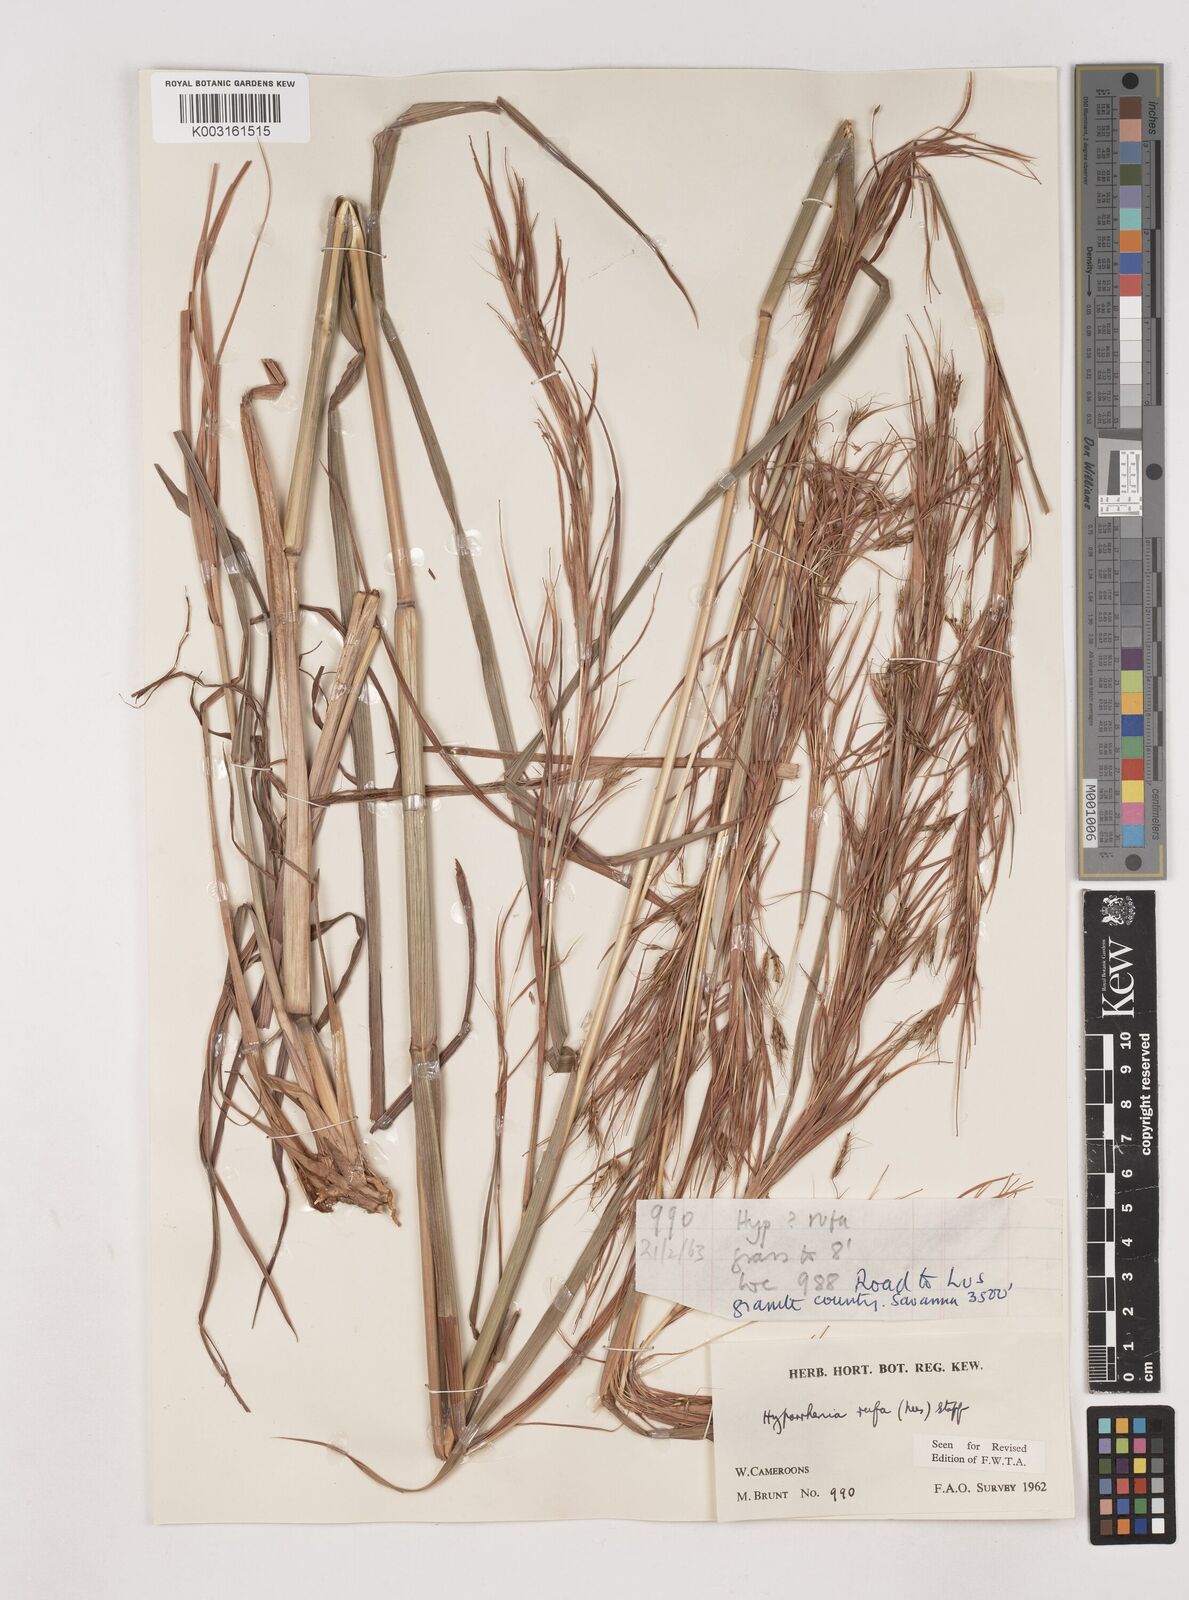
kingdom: Plantae
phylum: Tracheophyta
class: Liliopsida
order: Poales
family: Poaceae
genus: Hyparrhenia
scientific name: Hyparrhenia rufa
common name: Jaraguagrass
